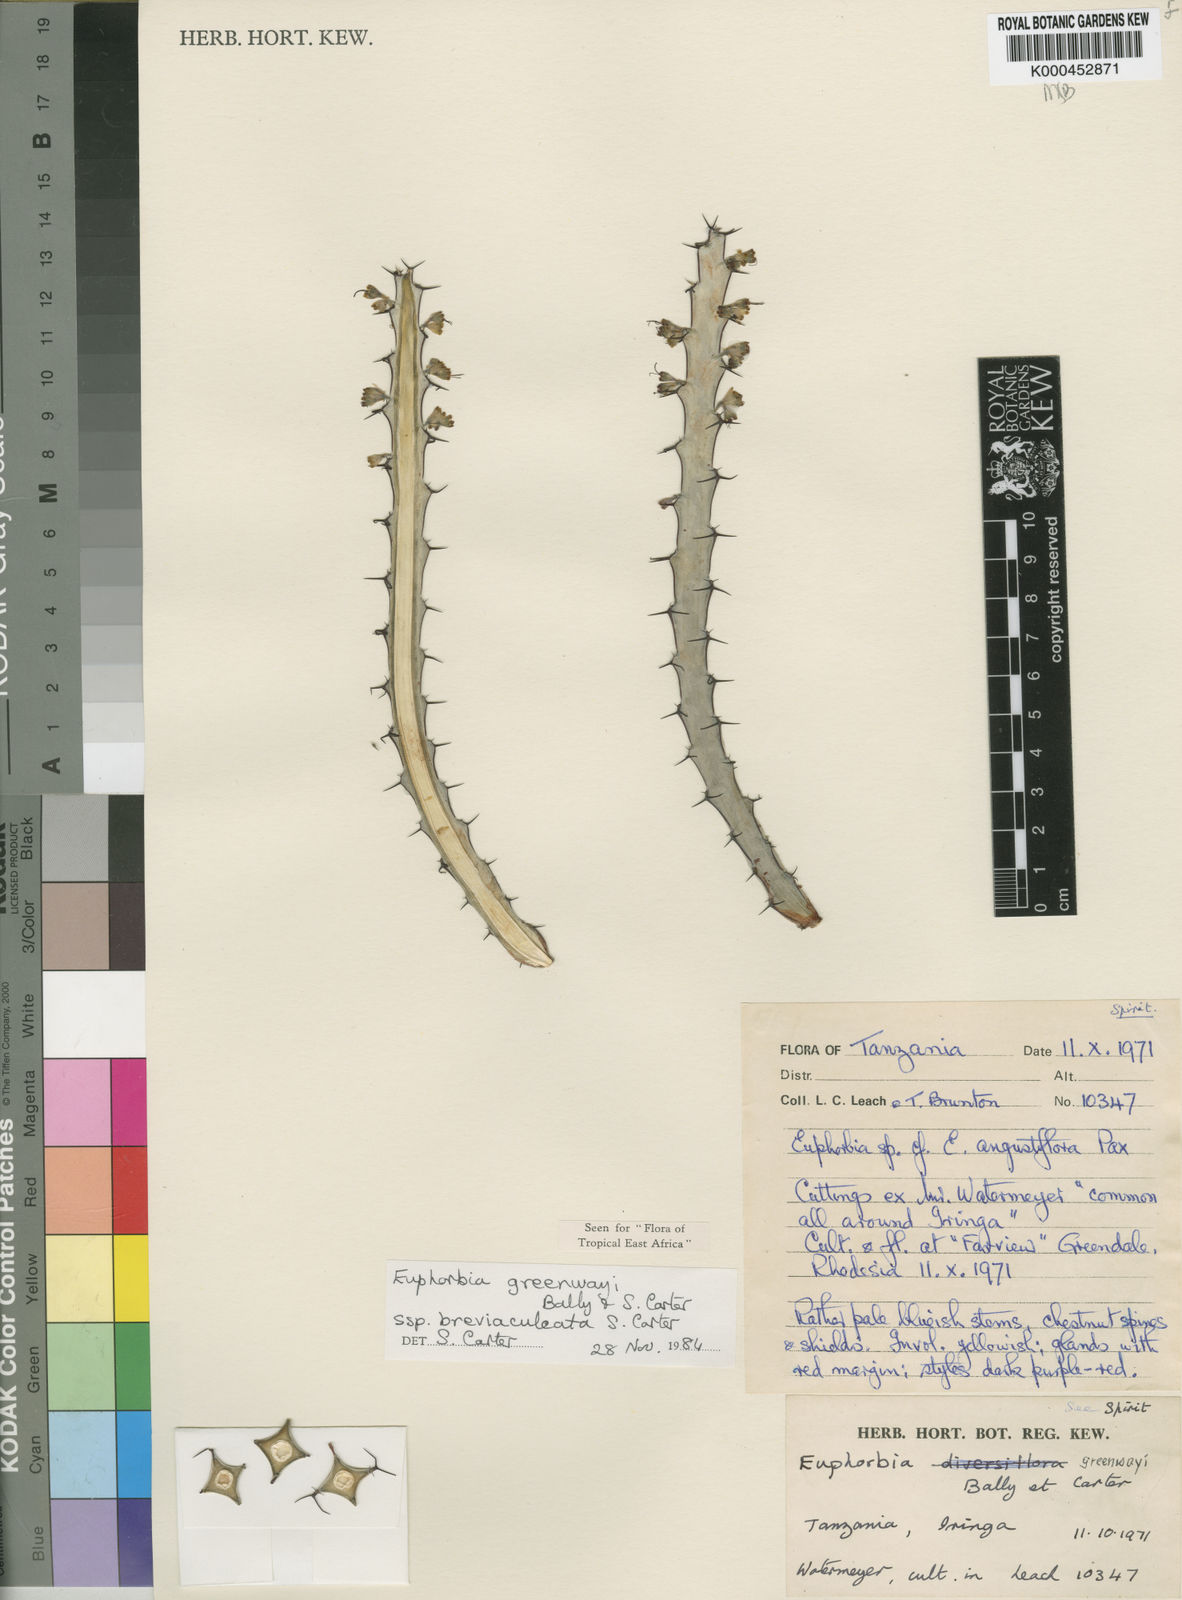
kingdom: Plantae
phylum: Tracheophyta
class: Magnoliopsida
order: Malpighiales
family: Euphorbiaceae
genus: Euphorbia
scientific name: Euphorbia greenwayi
